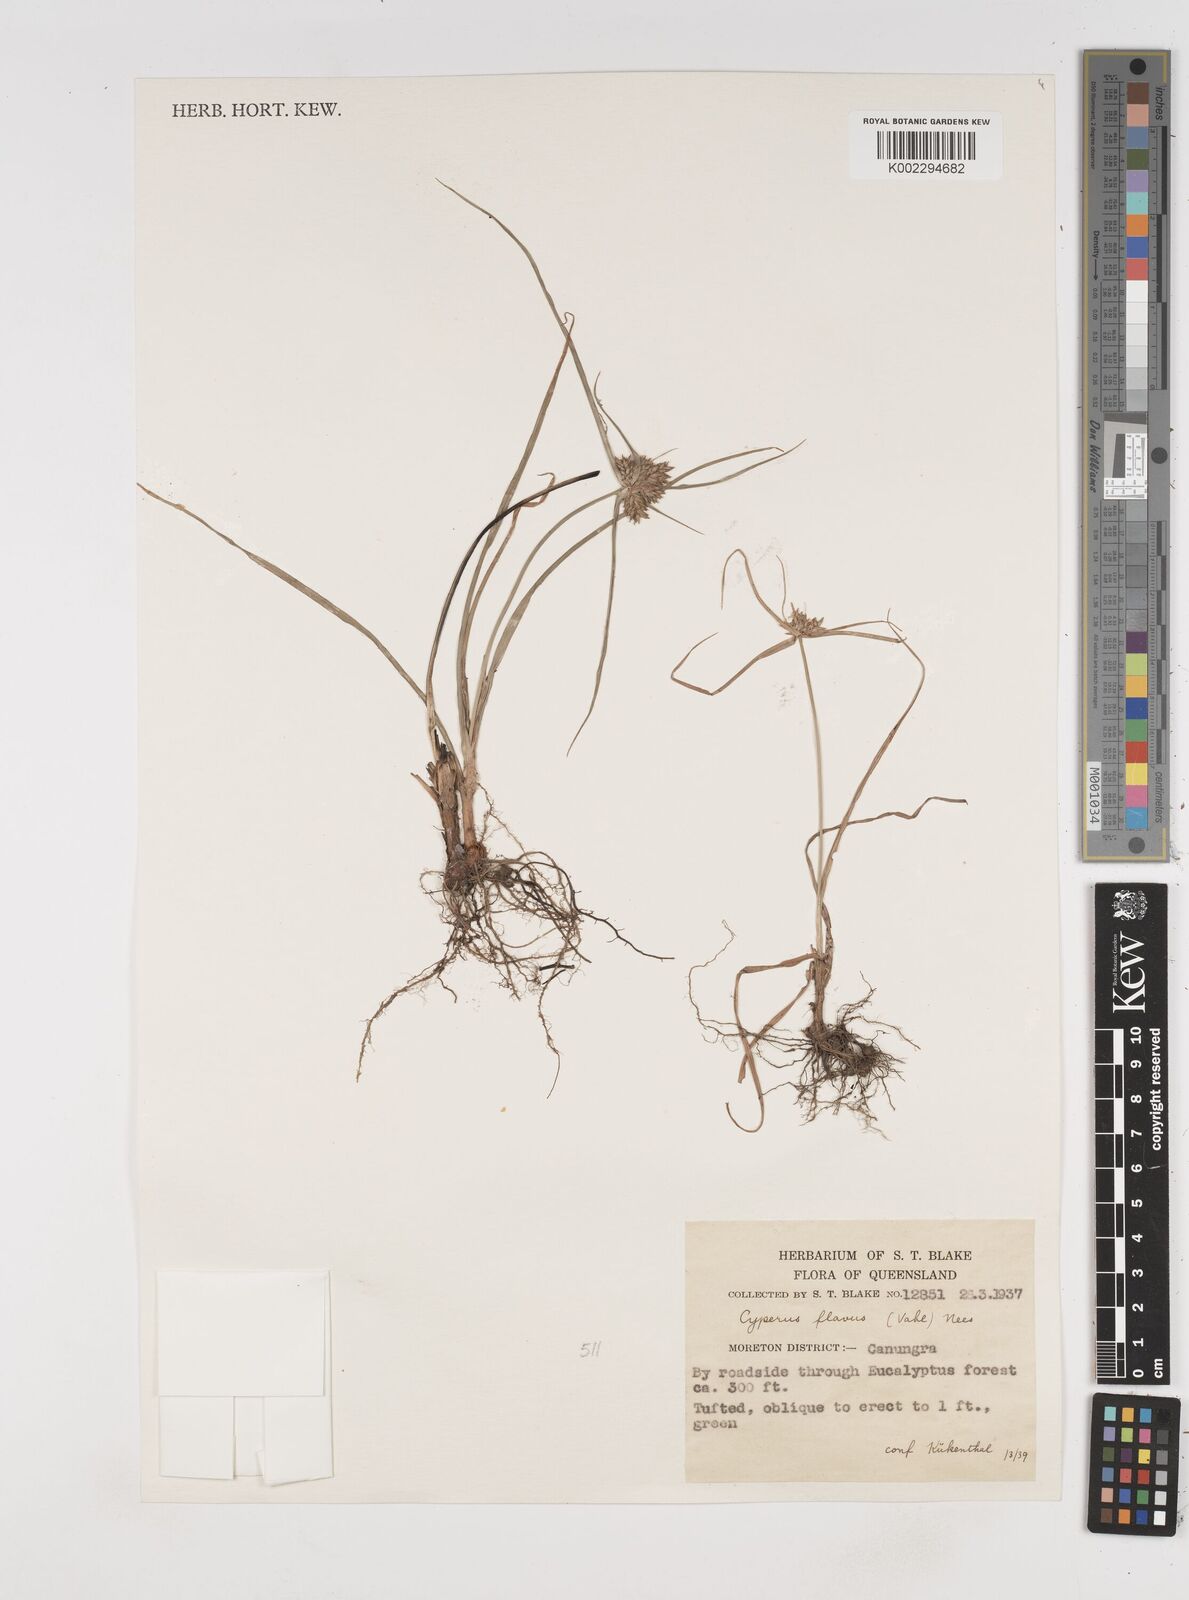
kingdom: Plantae
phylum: Tracheophyta
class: Liliopsida
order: Poales
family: Cyperaceae
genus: Cyperus
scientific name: Cyperus aggregatus
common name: Inflatedscale flatsedge
